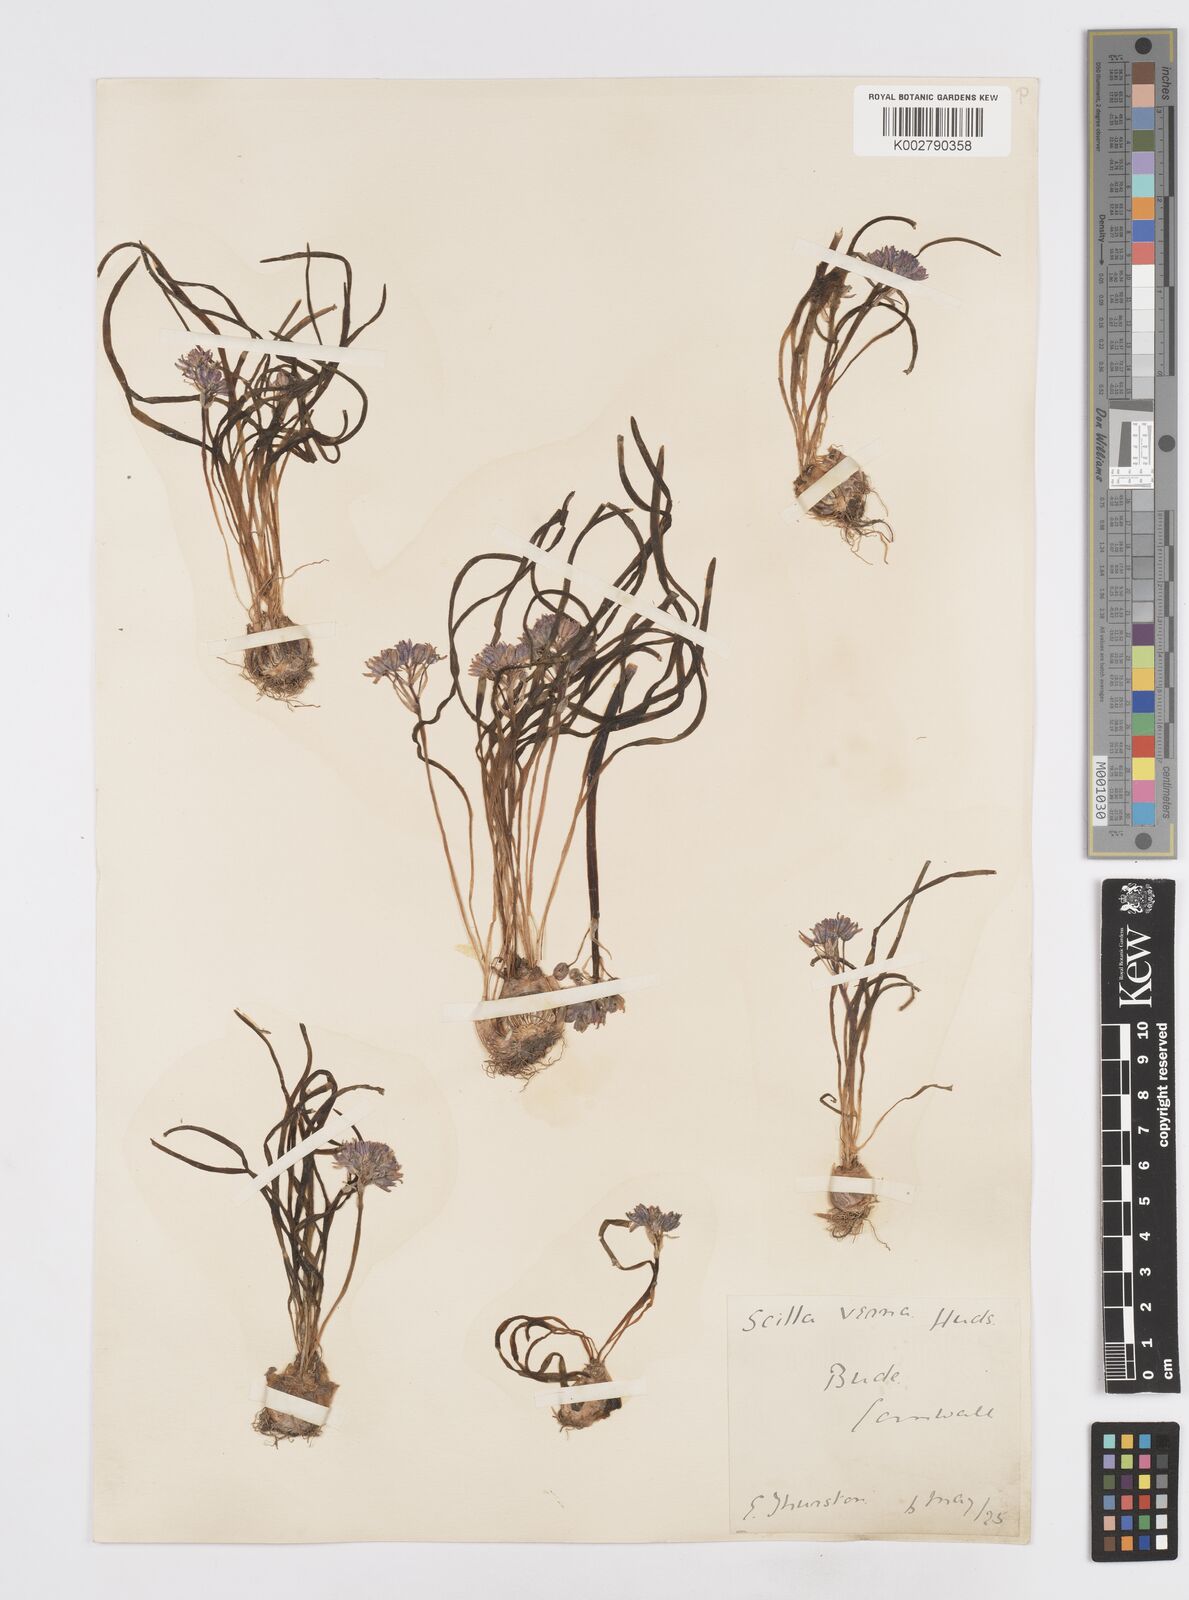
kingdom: Plantae
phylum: Tracheophyta
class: Liliopsida
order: Asparagales
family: Asparagaceae
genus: Scilla
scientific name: Scilla verna
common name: Spring squill
